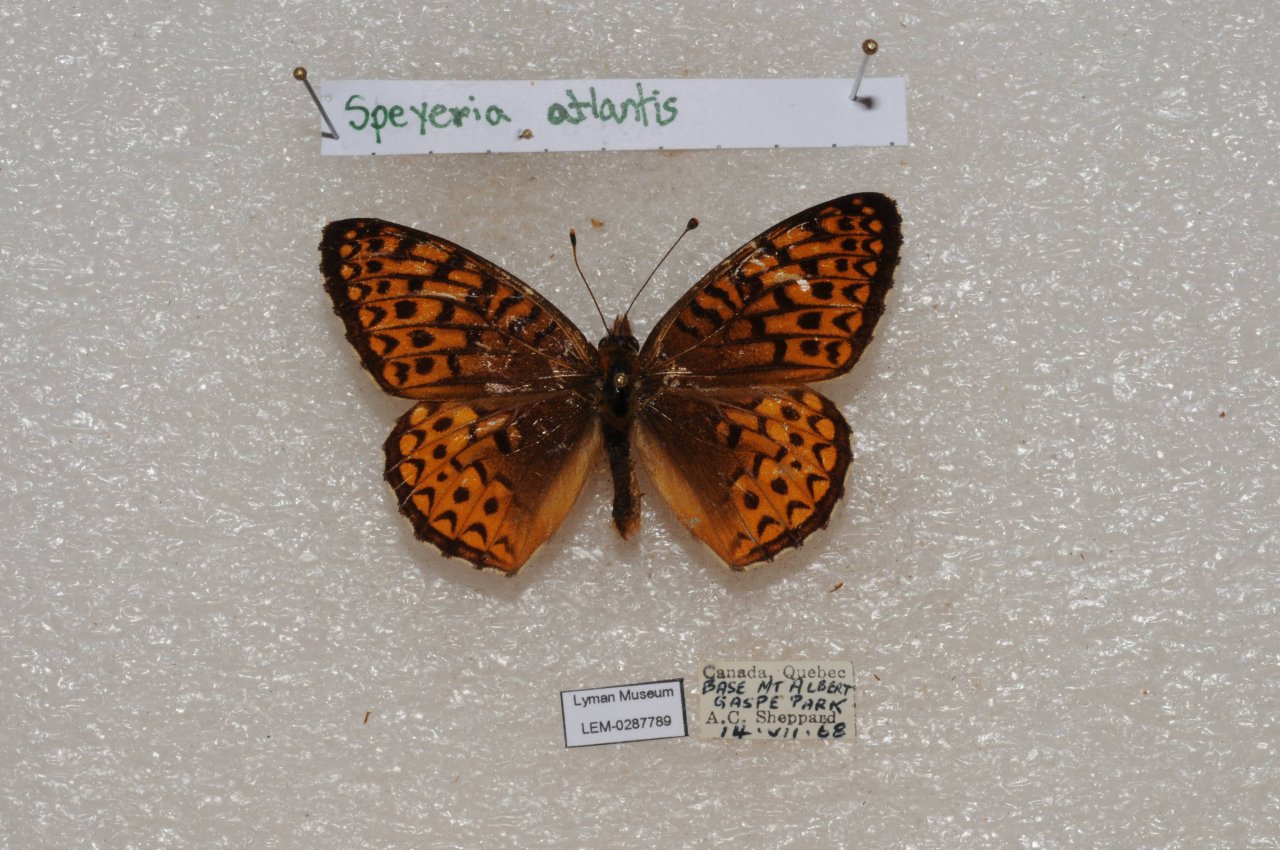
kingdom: Animalia
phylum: Arthropoda
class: Insecta
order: Lepidoptera
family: Nymphalidae
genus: Speyeria
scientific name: Speyeria atlantis
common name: Atlantis Fritillary
